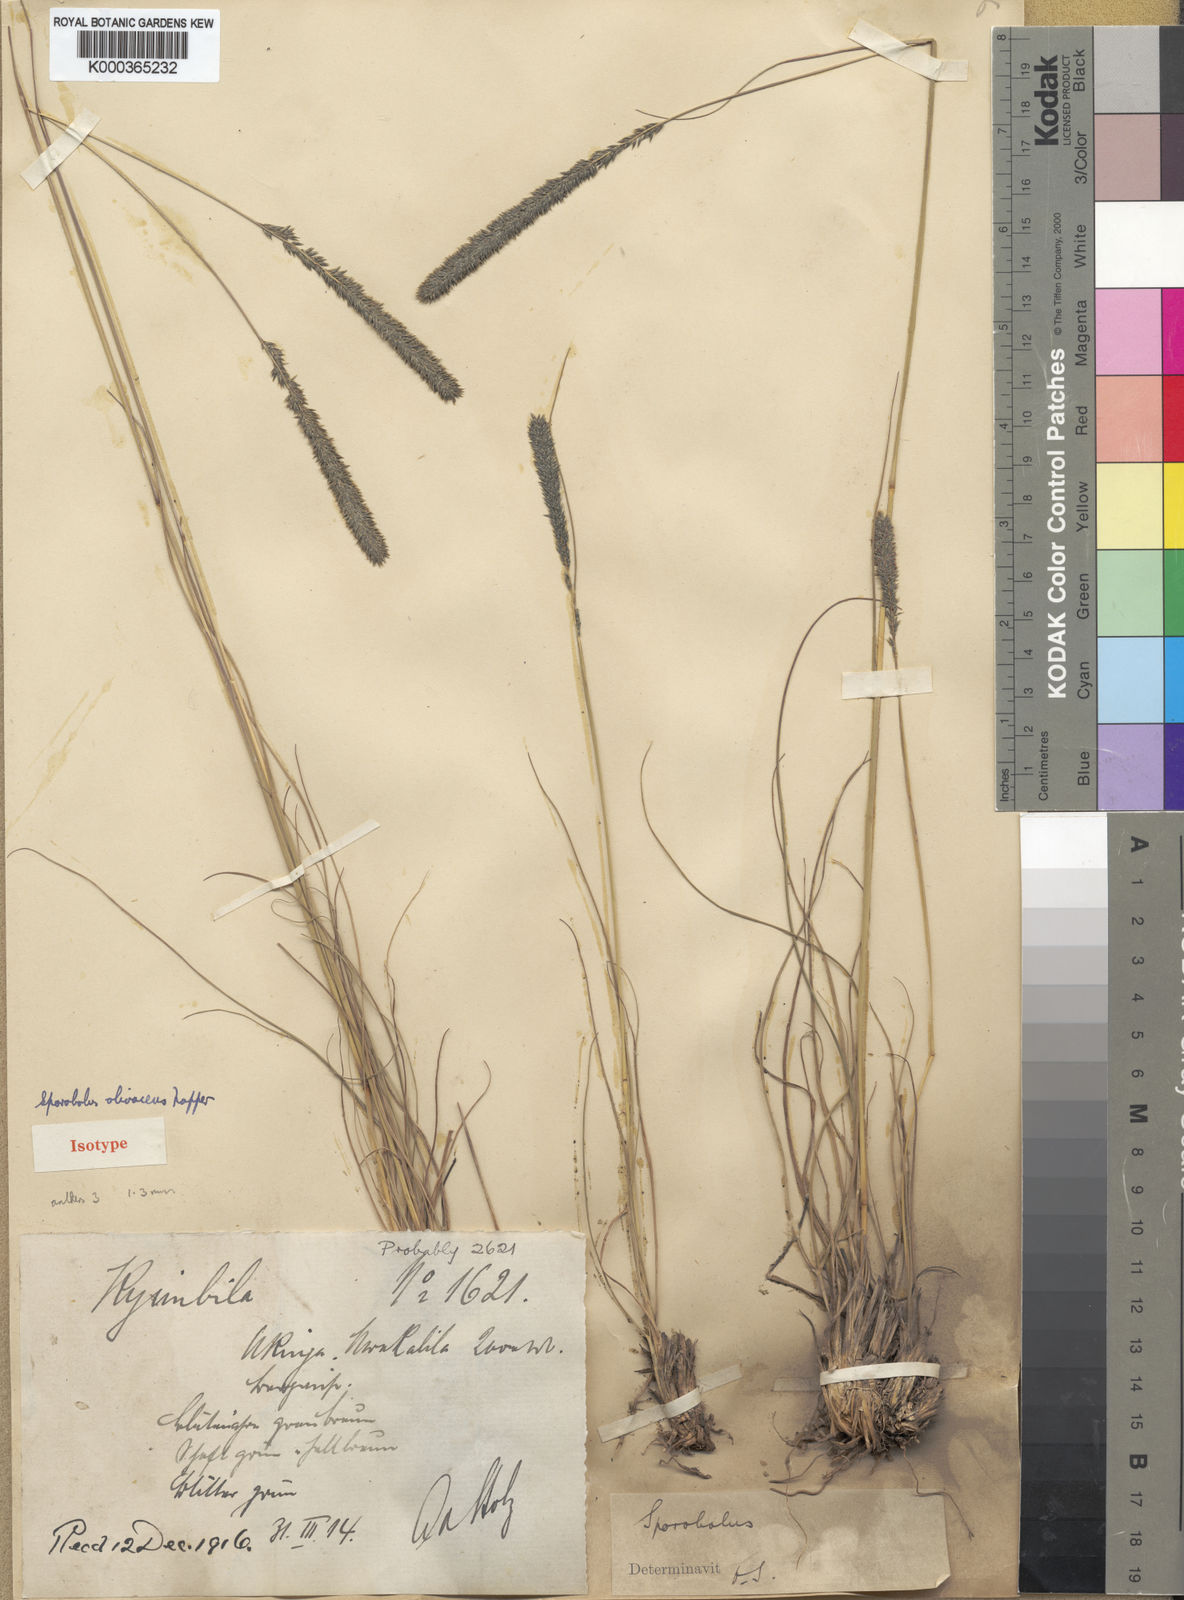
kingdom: Plantae
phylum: Tracheophyta
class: Liliopsida
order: Poales
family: Poaceae
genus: Sporobolus
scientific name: Sporobolus olivaceus
